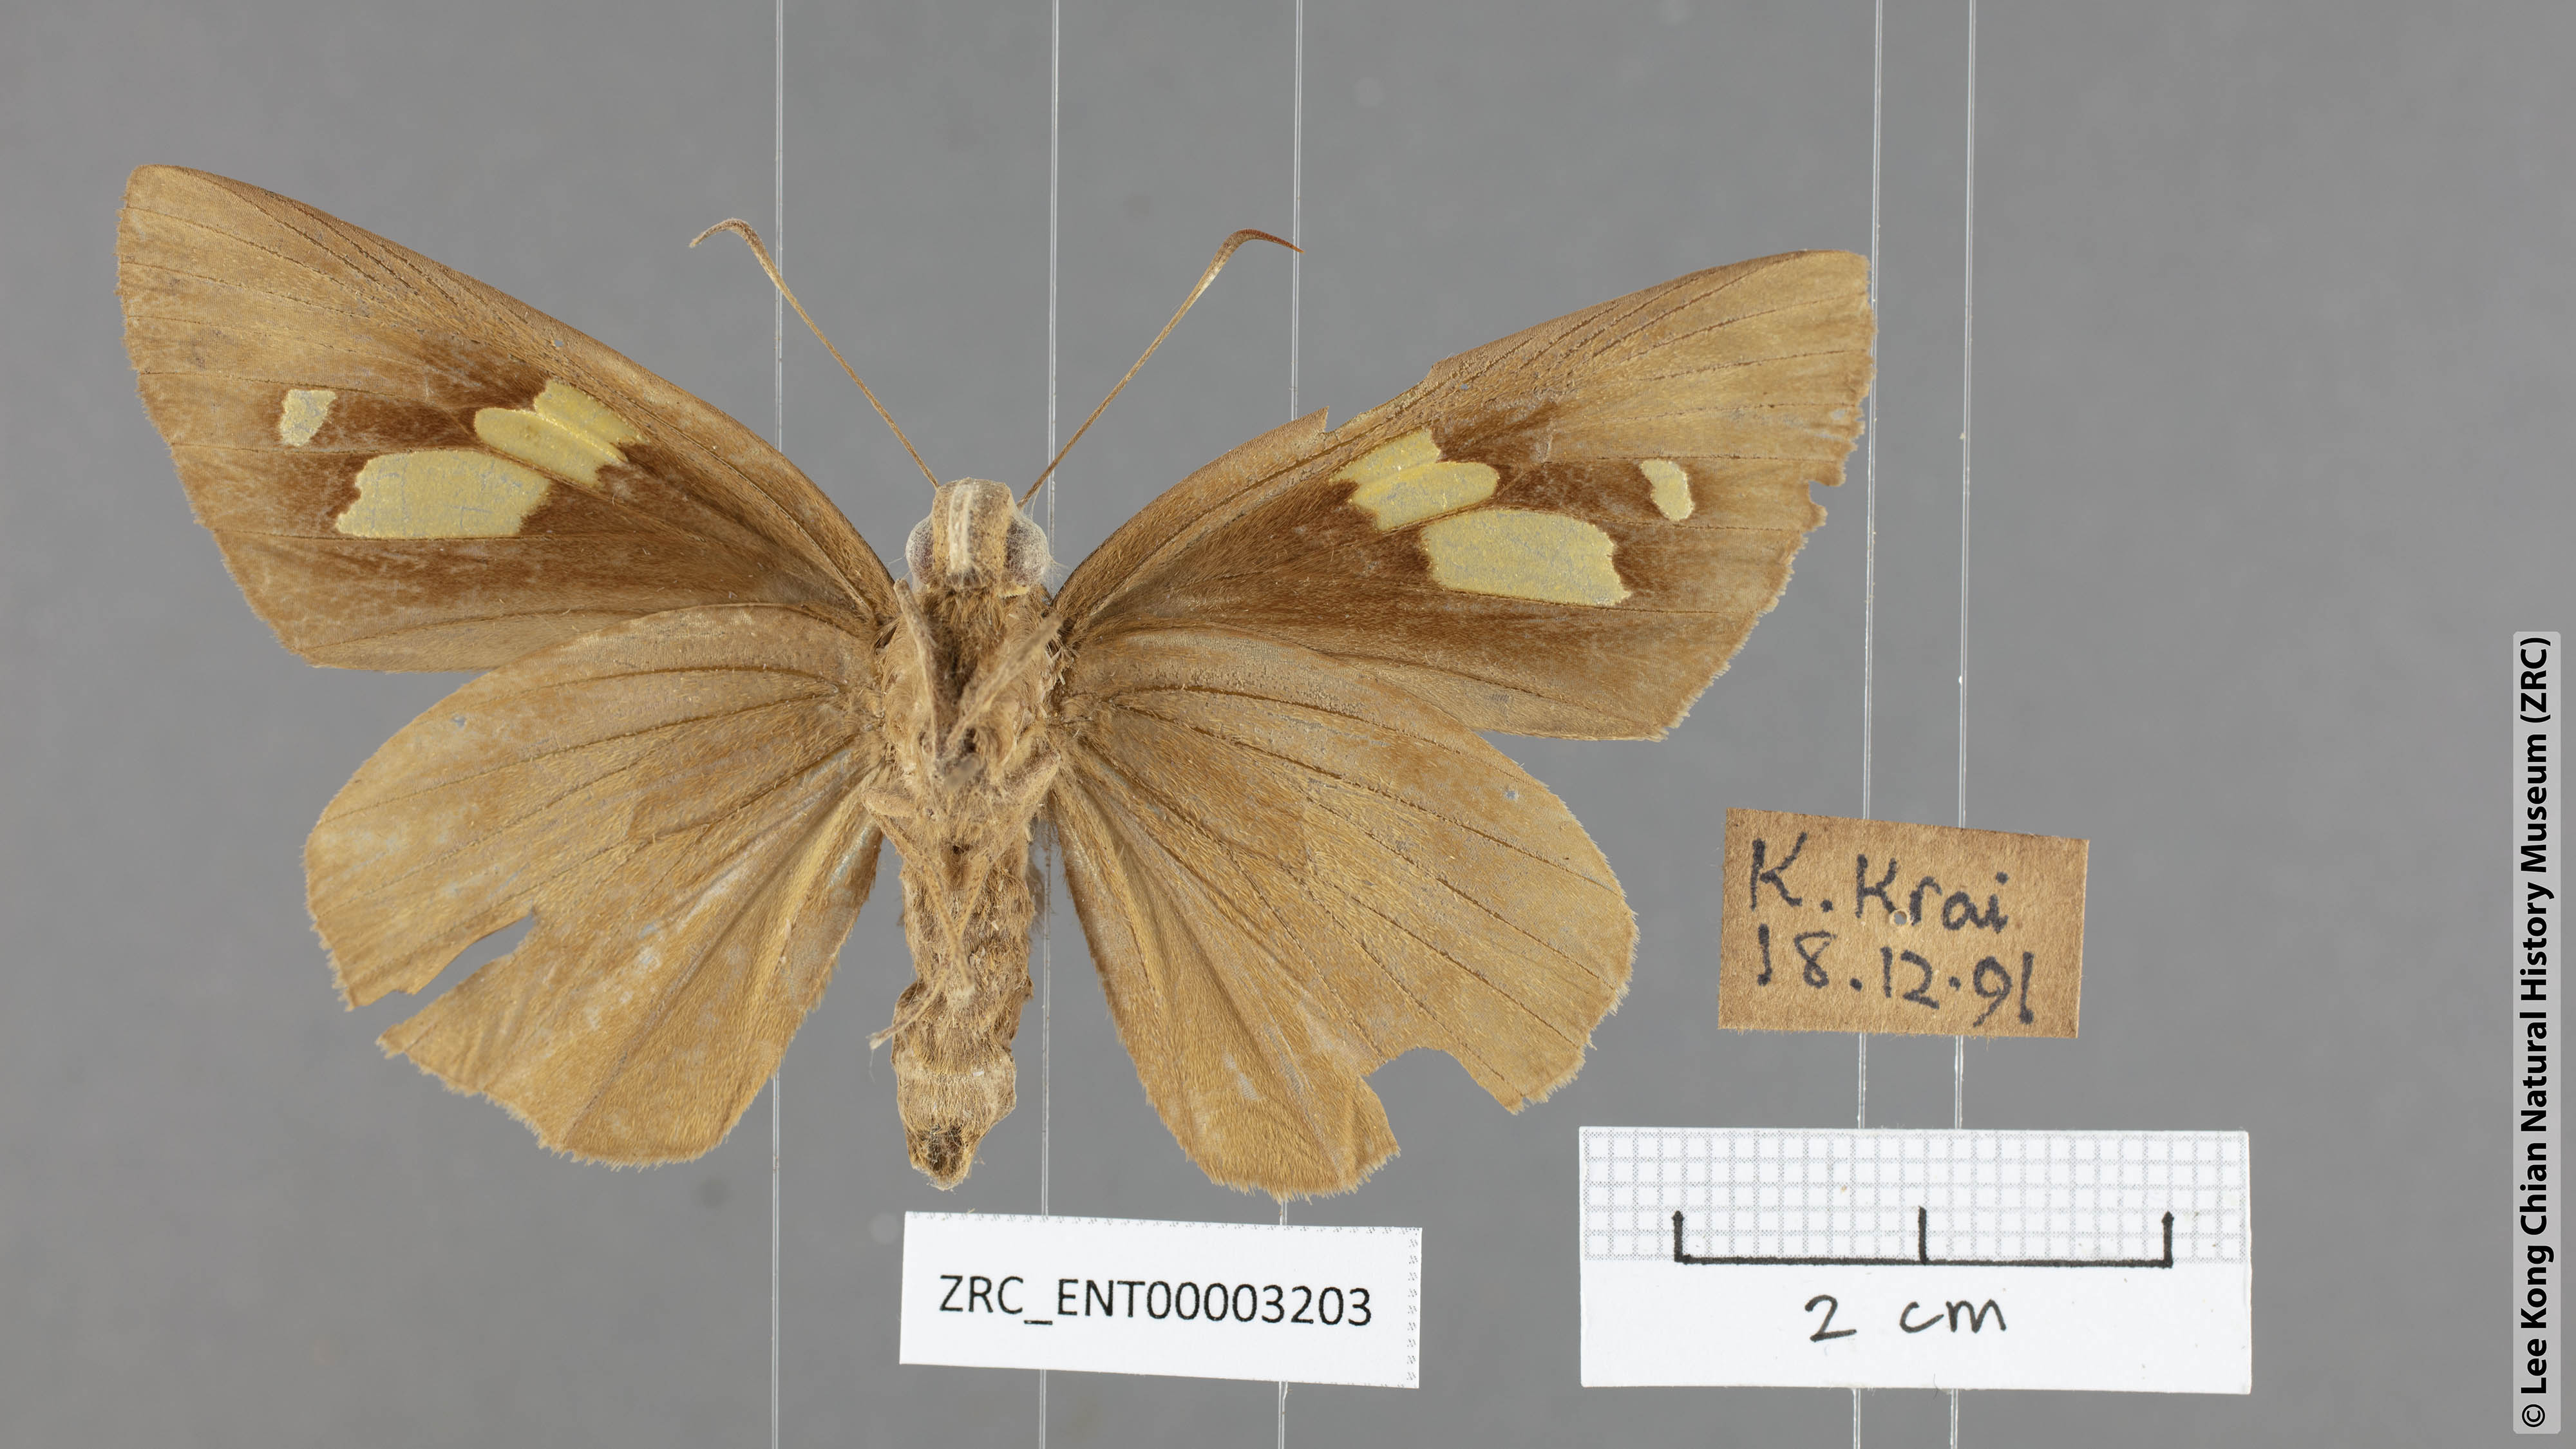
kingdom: Animalia
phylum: Arthropoda
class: Insecta
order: Lepidoptera
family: Hesperiidae
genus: Erionota
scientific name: Erionota torus
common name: Rounded palm-redeye
